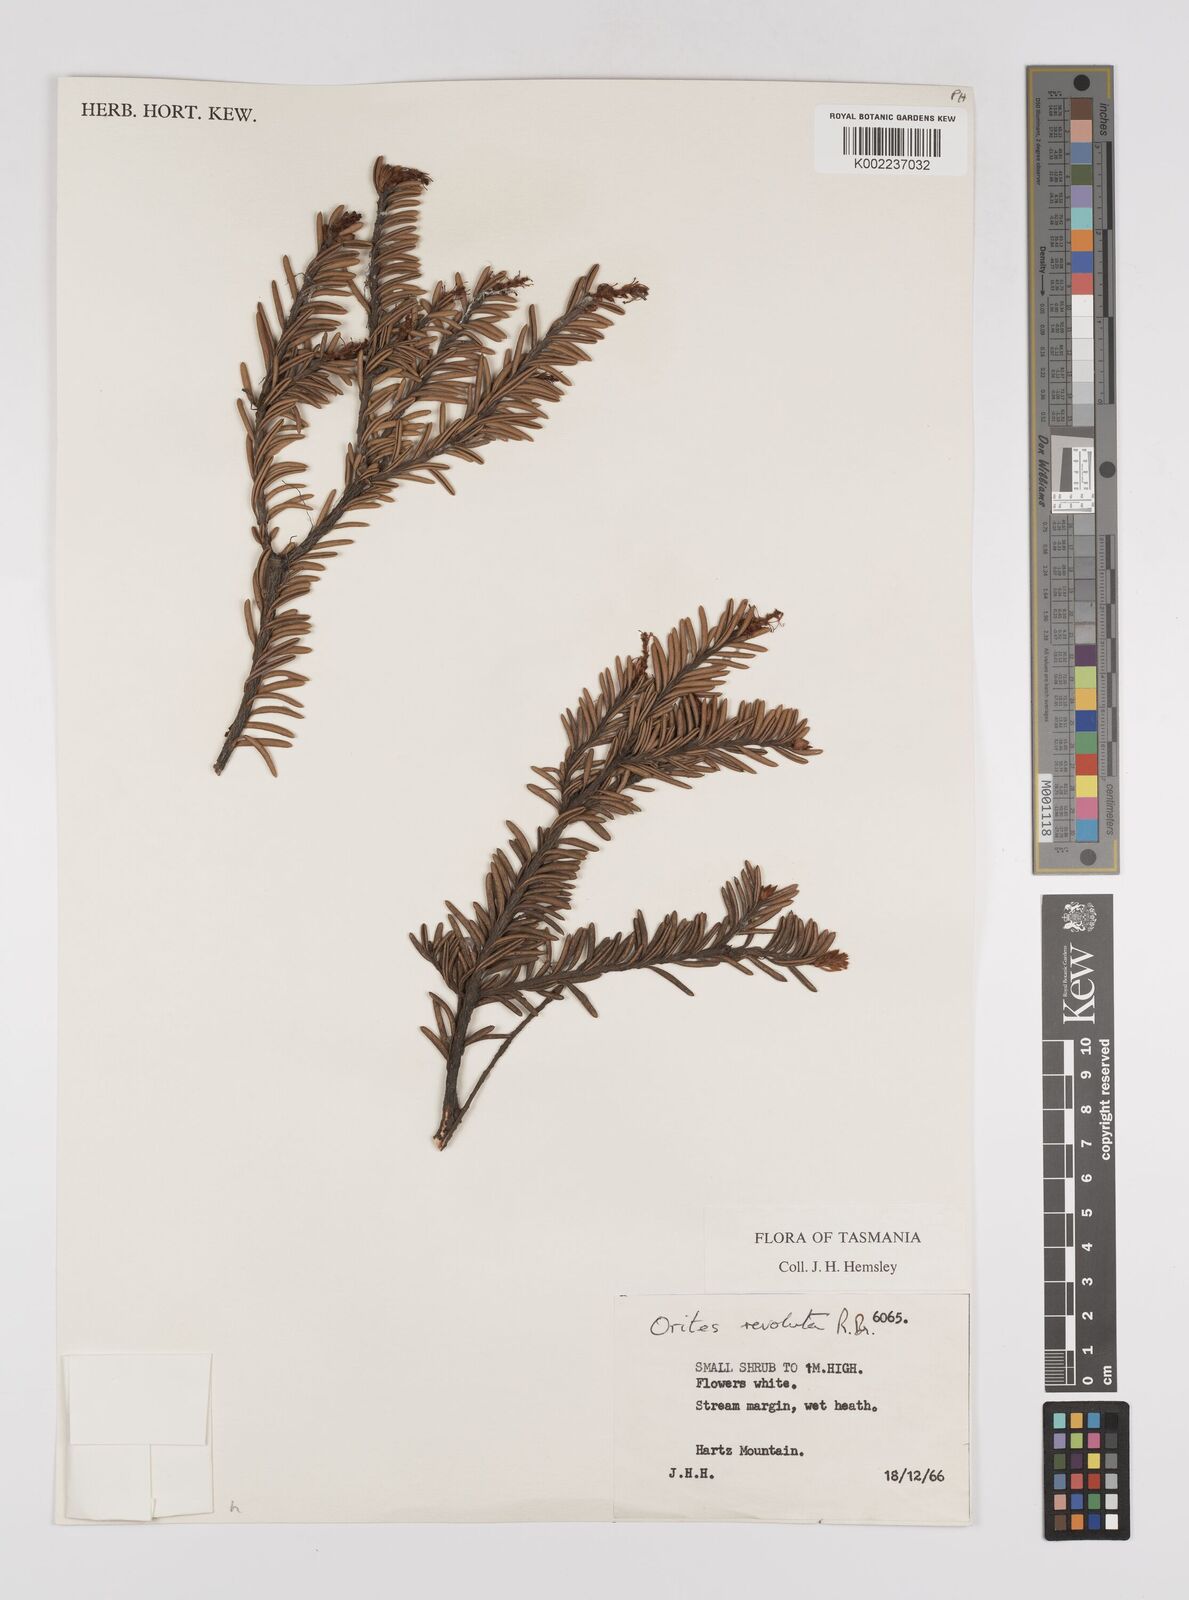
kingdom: Plantae
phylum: Tracheophyta
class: Magnoliopsida
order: Proteales
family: Proteaceae
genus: Orites
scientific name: Orites revolutus
